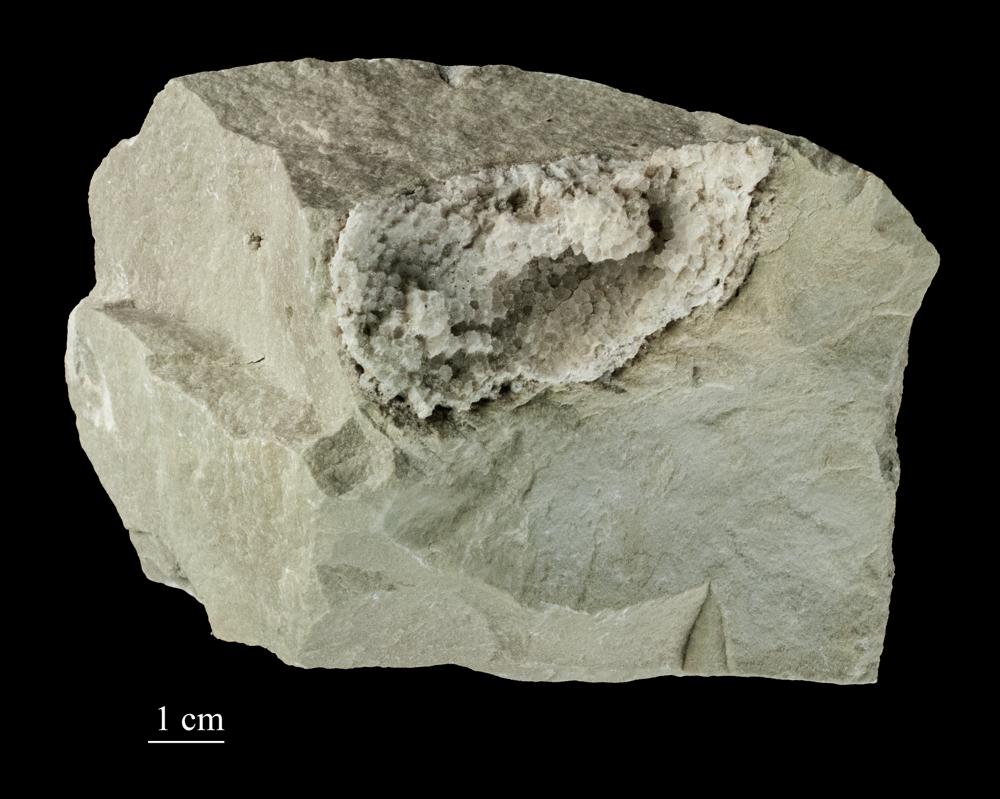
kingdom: Plantae
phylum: Tracheophyta
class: Pinopsida
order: Pinales
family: Cupressaceae
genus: Platycladus
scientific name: Platycladus
